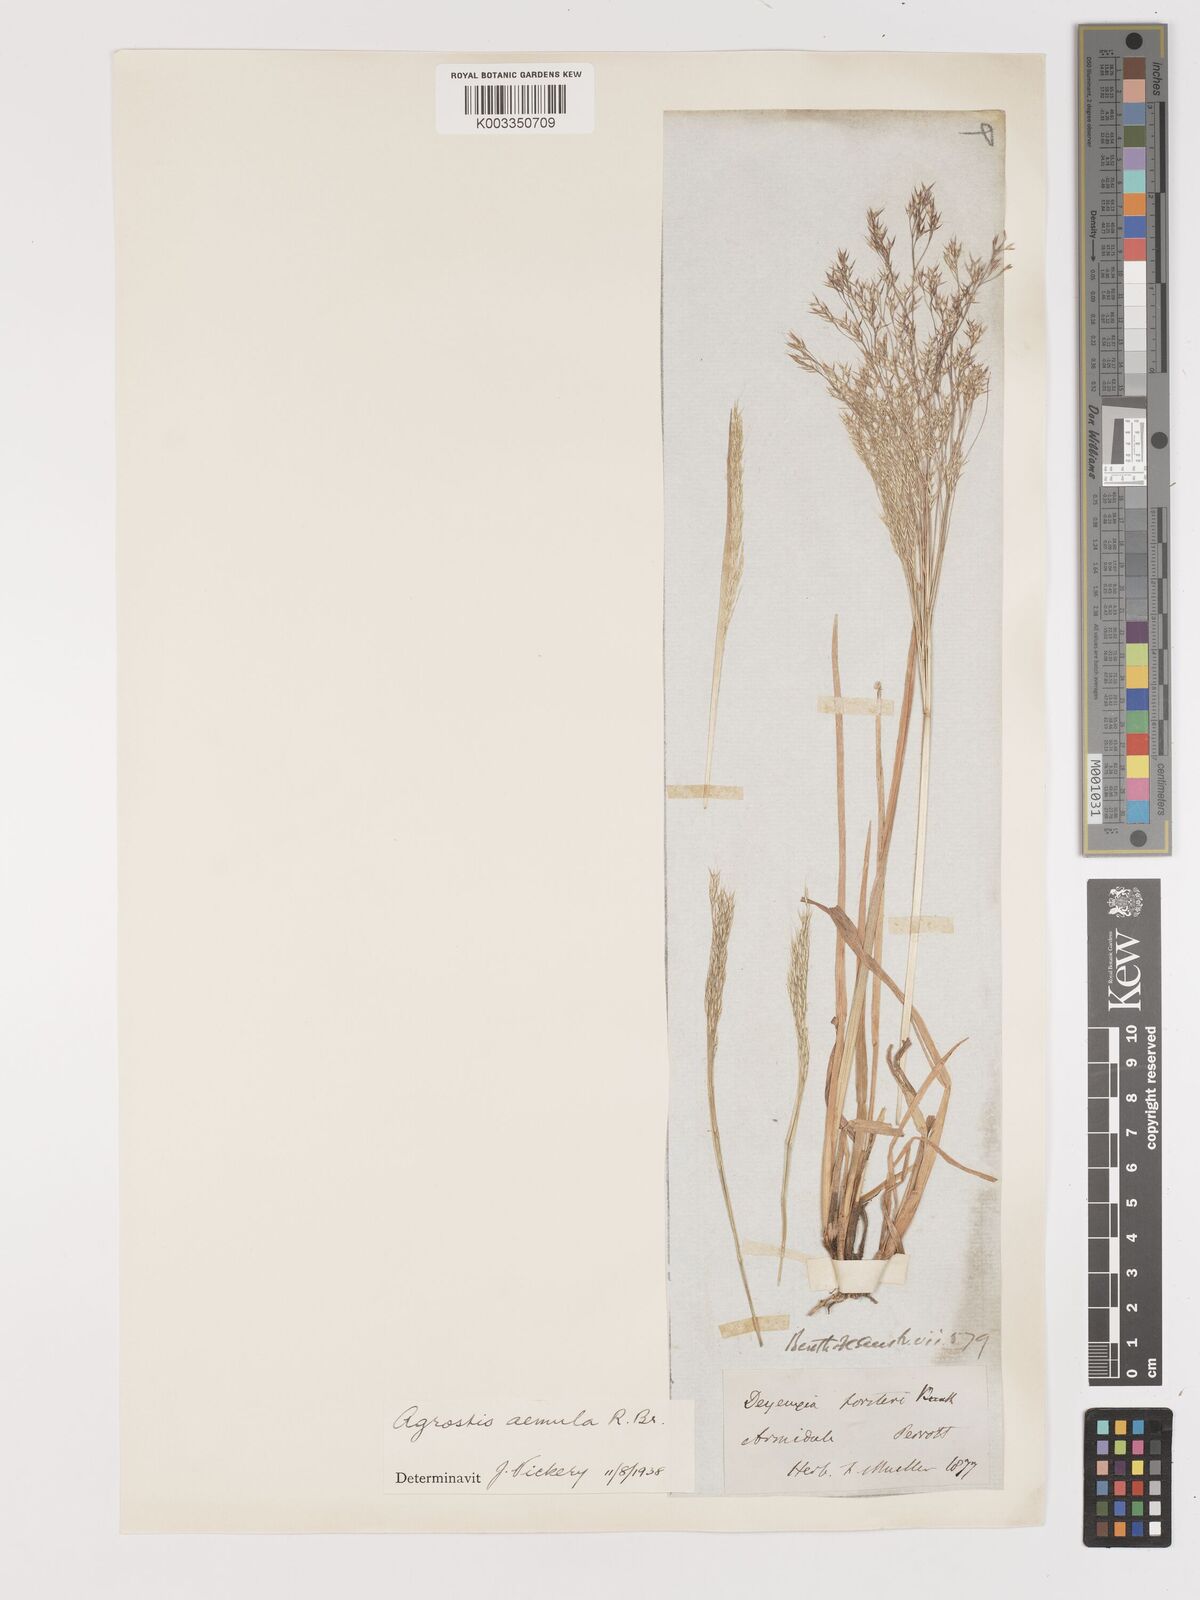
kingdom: Plantae
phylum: Tracheophyta
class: Liliopsida
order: Poales
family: Poaceae
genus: Lachnagrostis
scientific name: Lachnagrostis aemula
